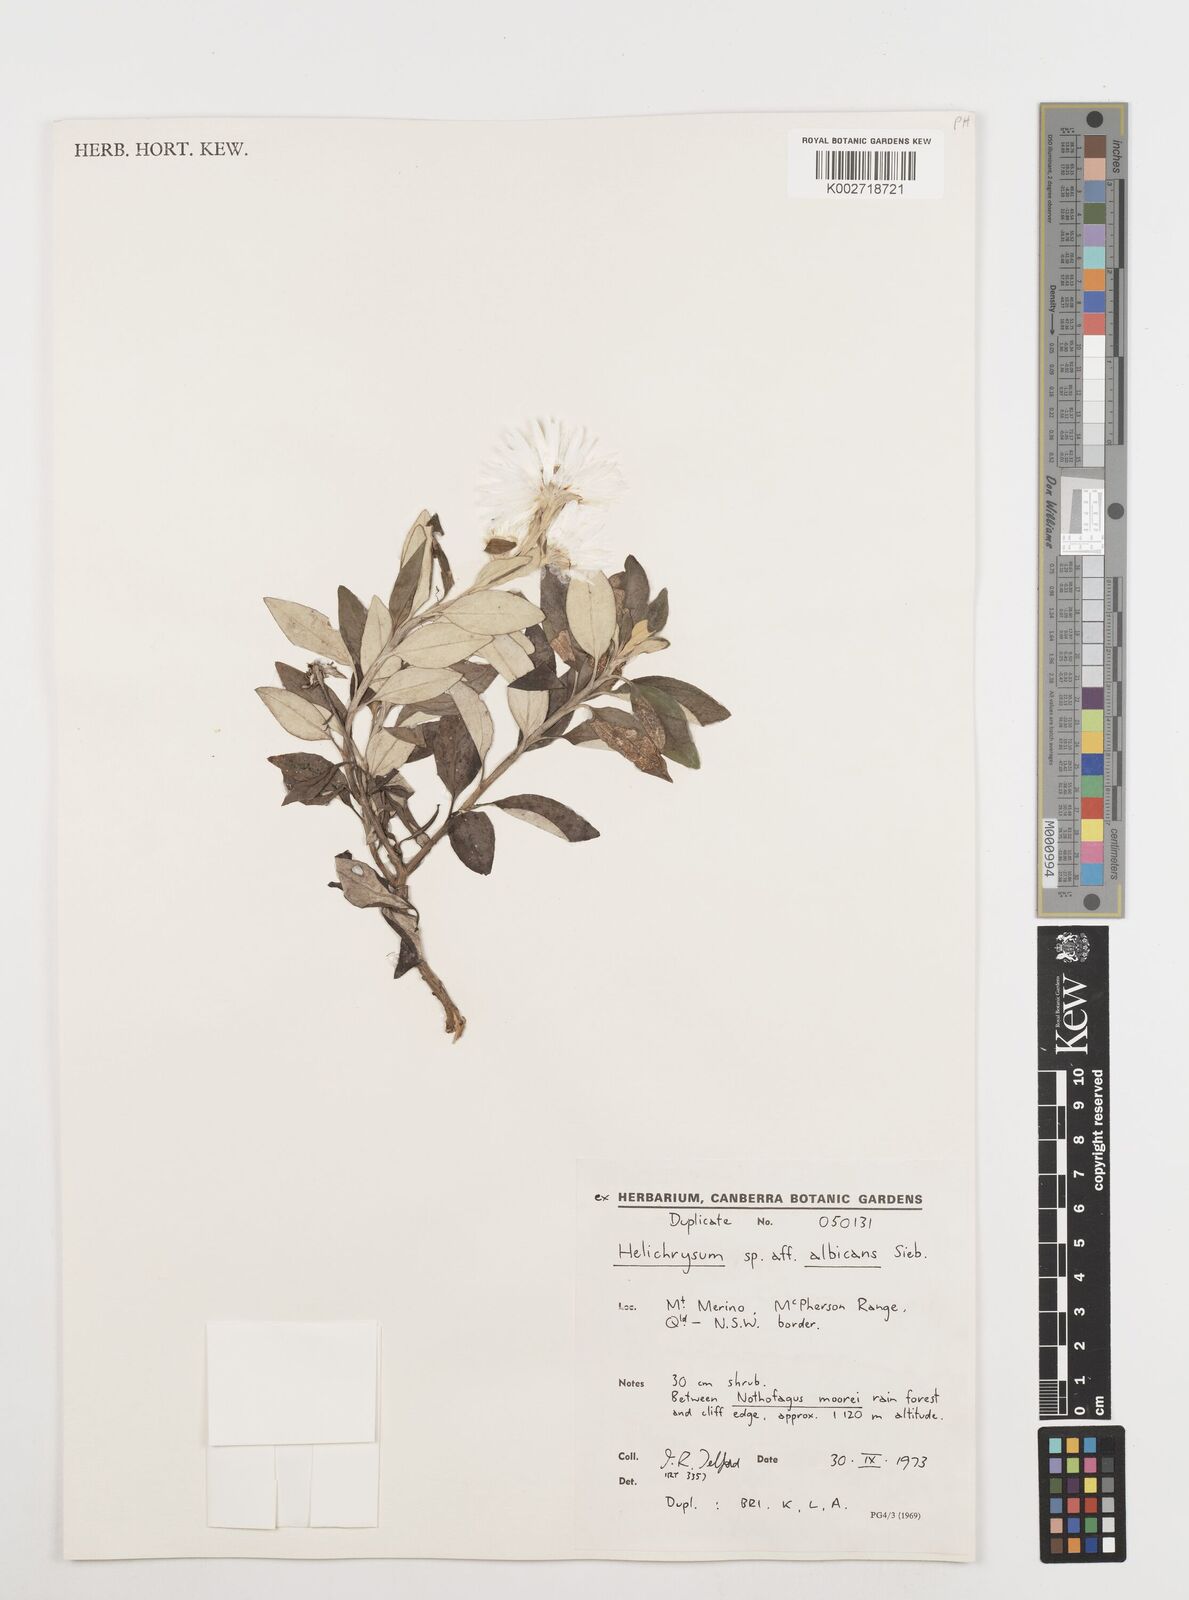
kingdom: Plantae
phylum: Tracheophyta
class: Magnoliopsida
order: Asterales
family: Asteraceae
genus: Coronidium
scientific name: Coronidium
